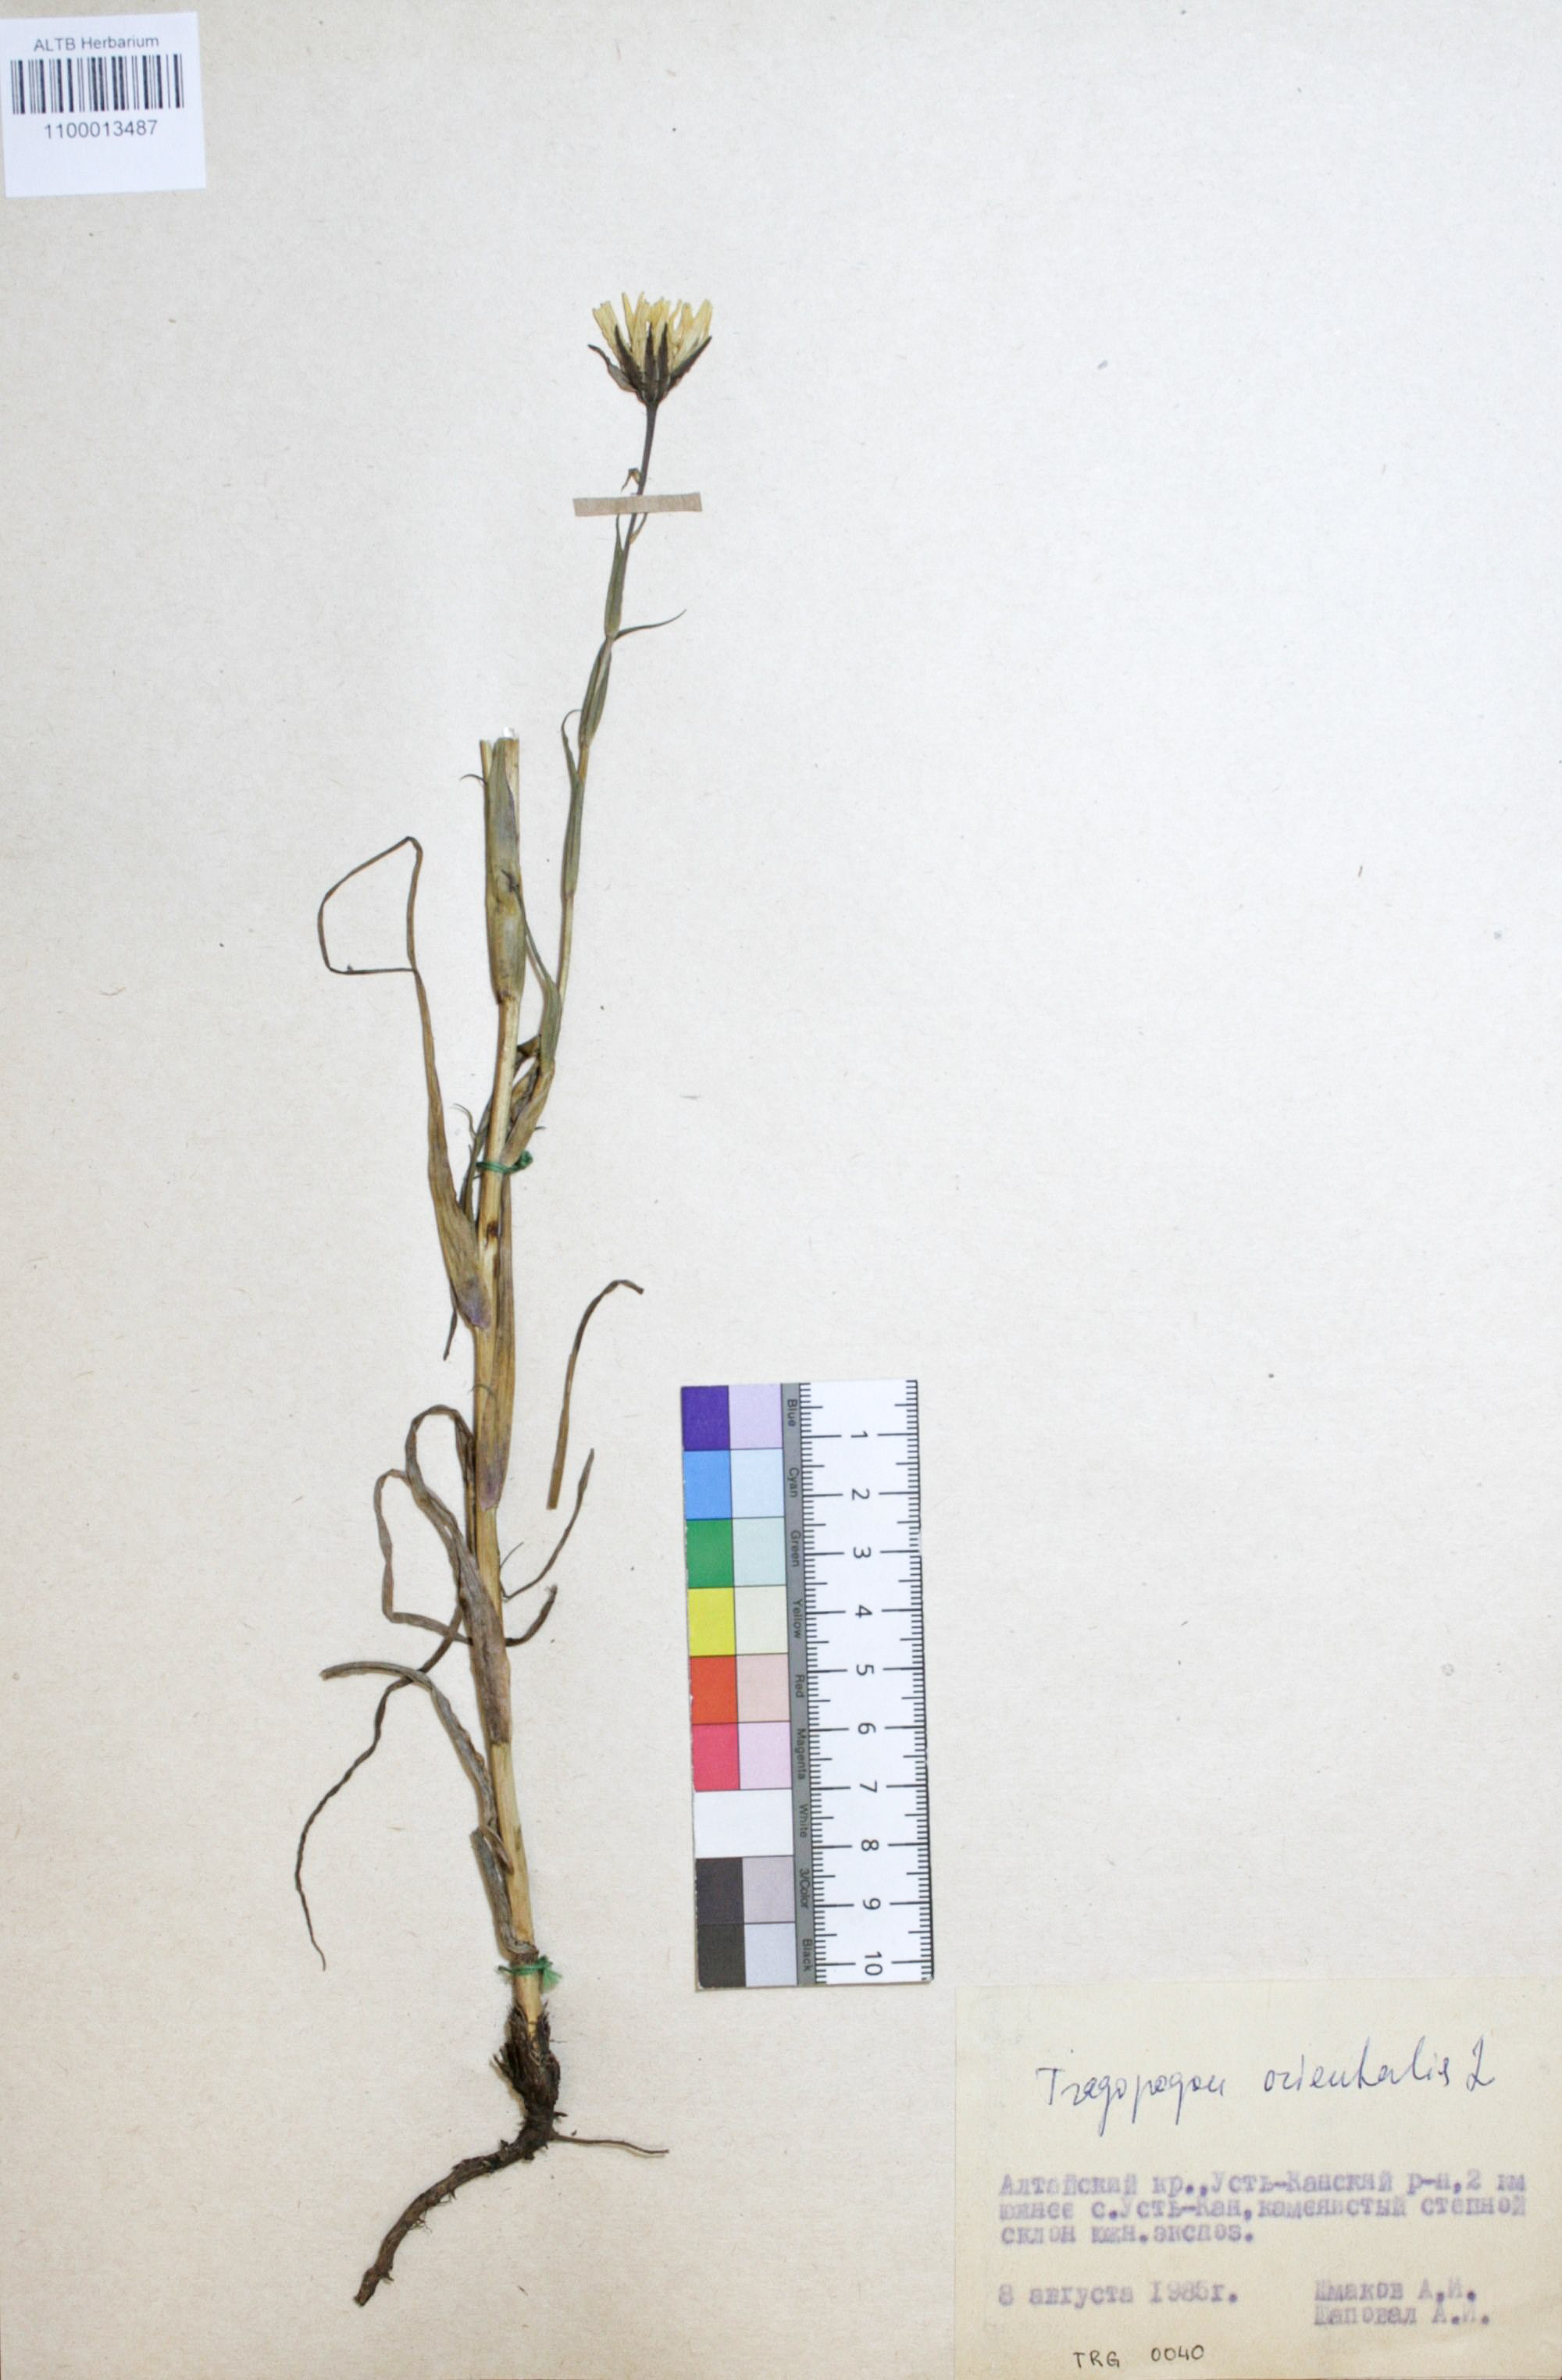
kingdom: Plantae
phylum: Tracheophyta
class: Magnoliopsida
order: Asterales
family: Asteraceae
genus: Tragopogon
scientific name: Tragopogon orientalis
